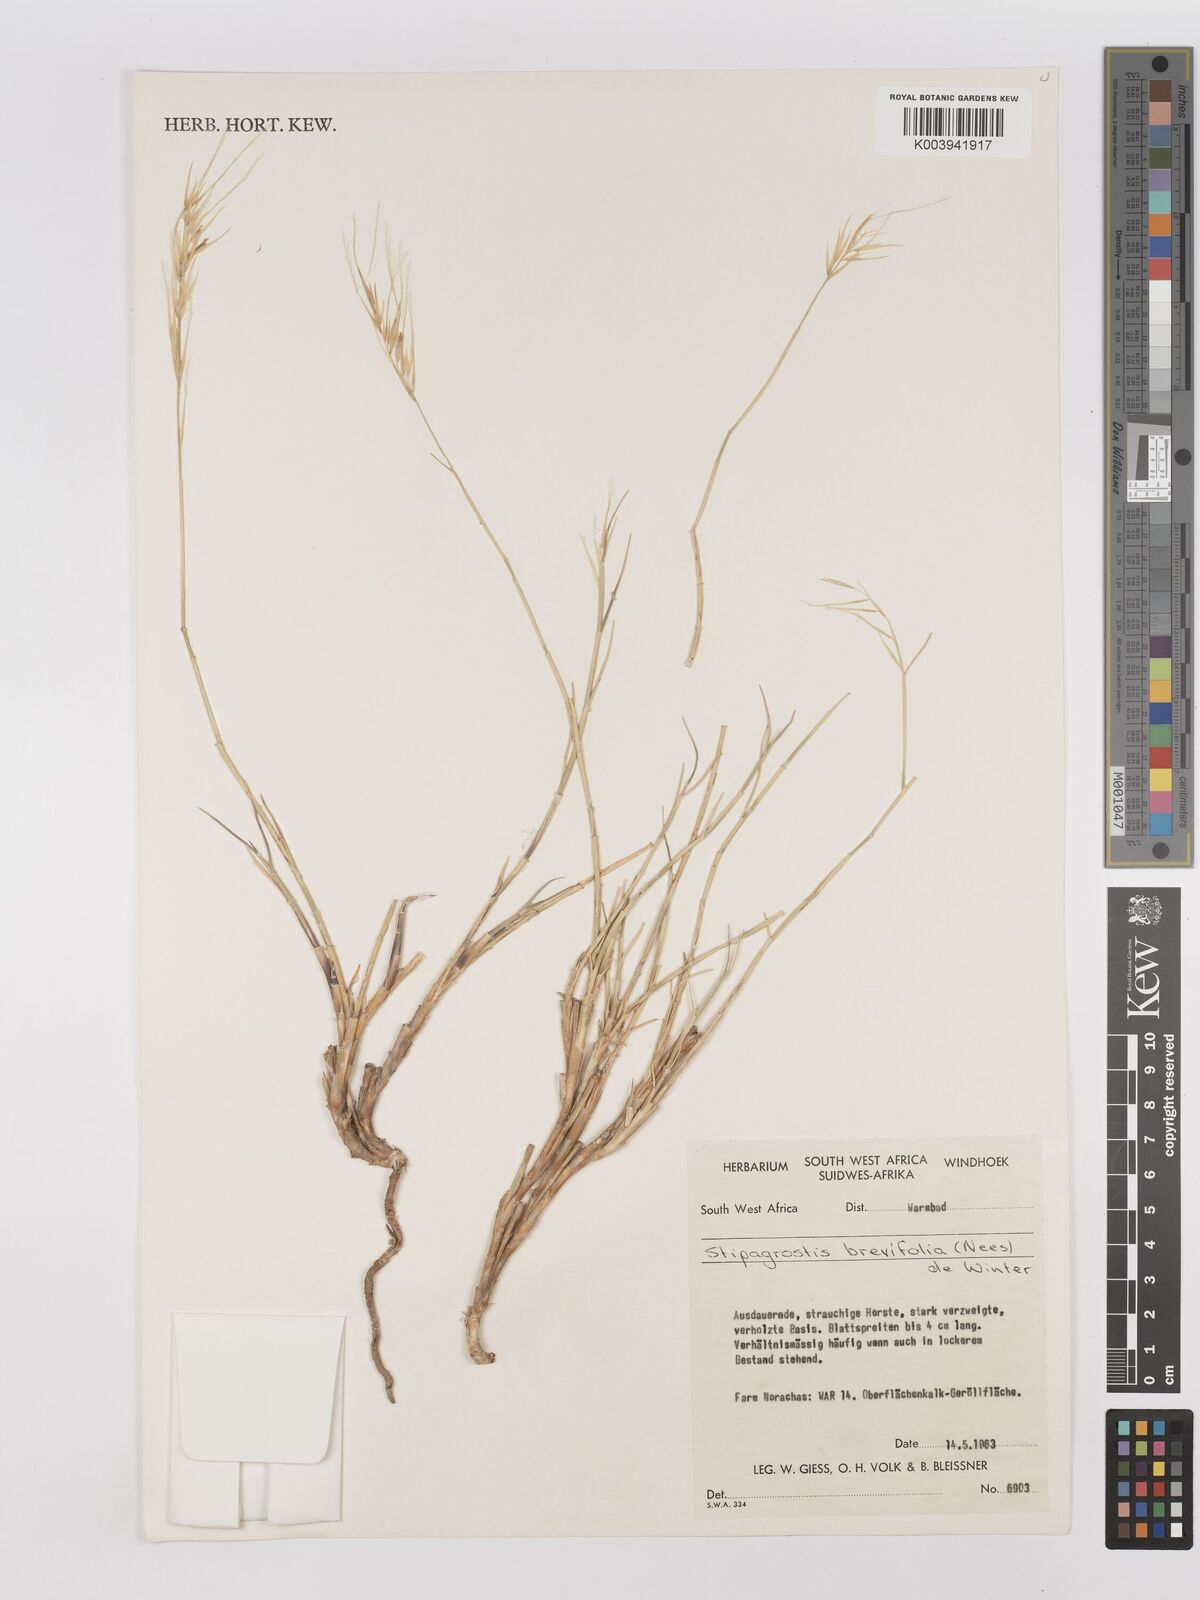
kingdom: Plantae
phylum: Tracheophyta
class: Liliopsida
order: Poales
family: Poaceae
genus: Stipagrostis
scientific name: Stipagrostis brevifolia
